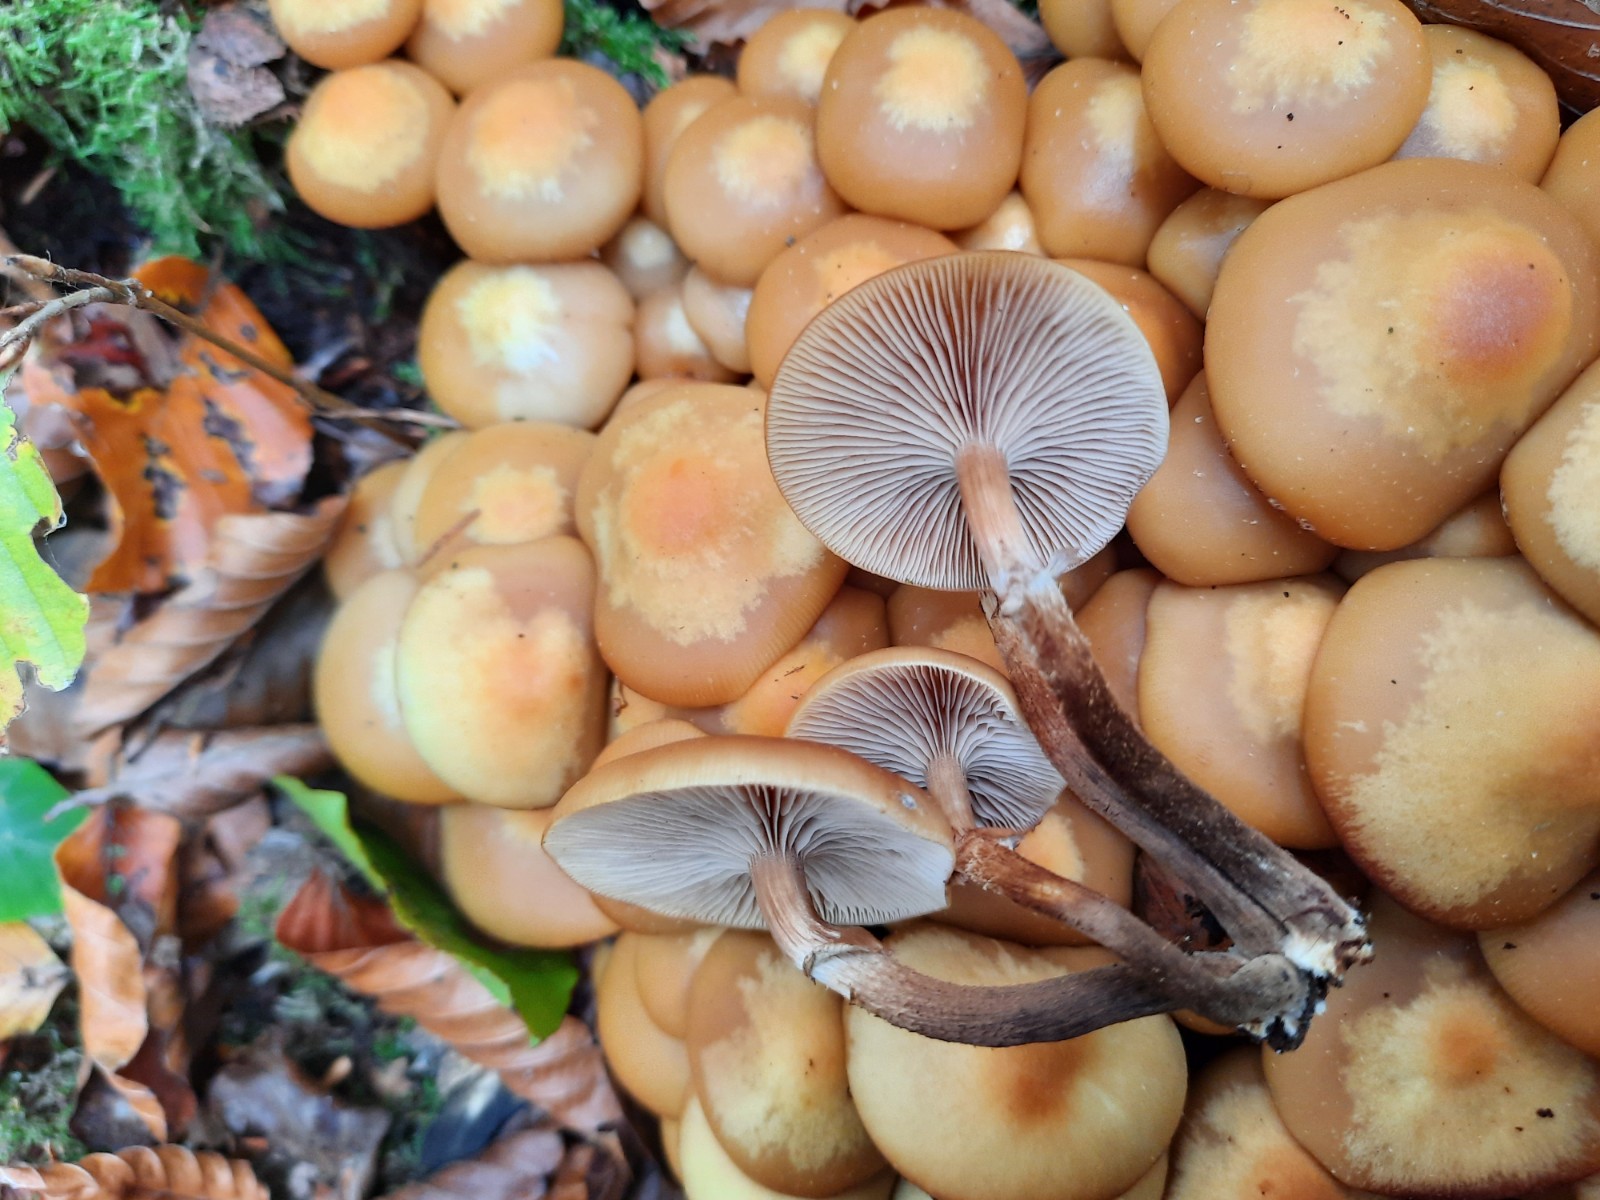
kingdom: Fungi
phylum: Basidiomycota
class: Agaricomycetes
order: Agaricales
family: Strophariaceae
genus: Kuehneromyces
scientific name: Kuehneromyces mutabilis
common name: foranderlig skælhat
